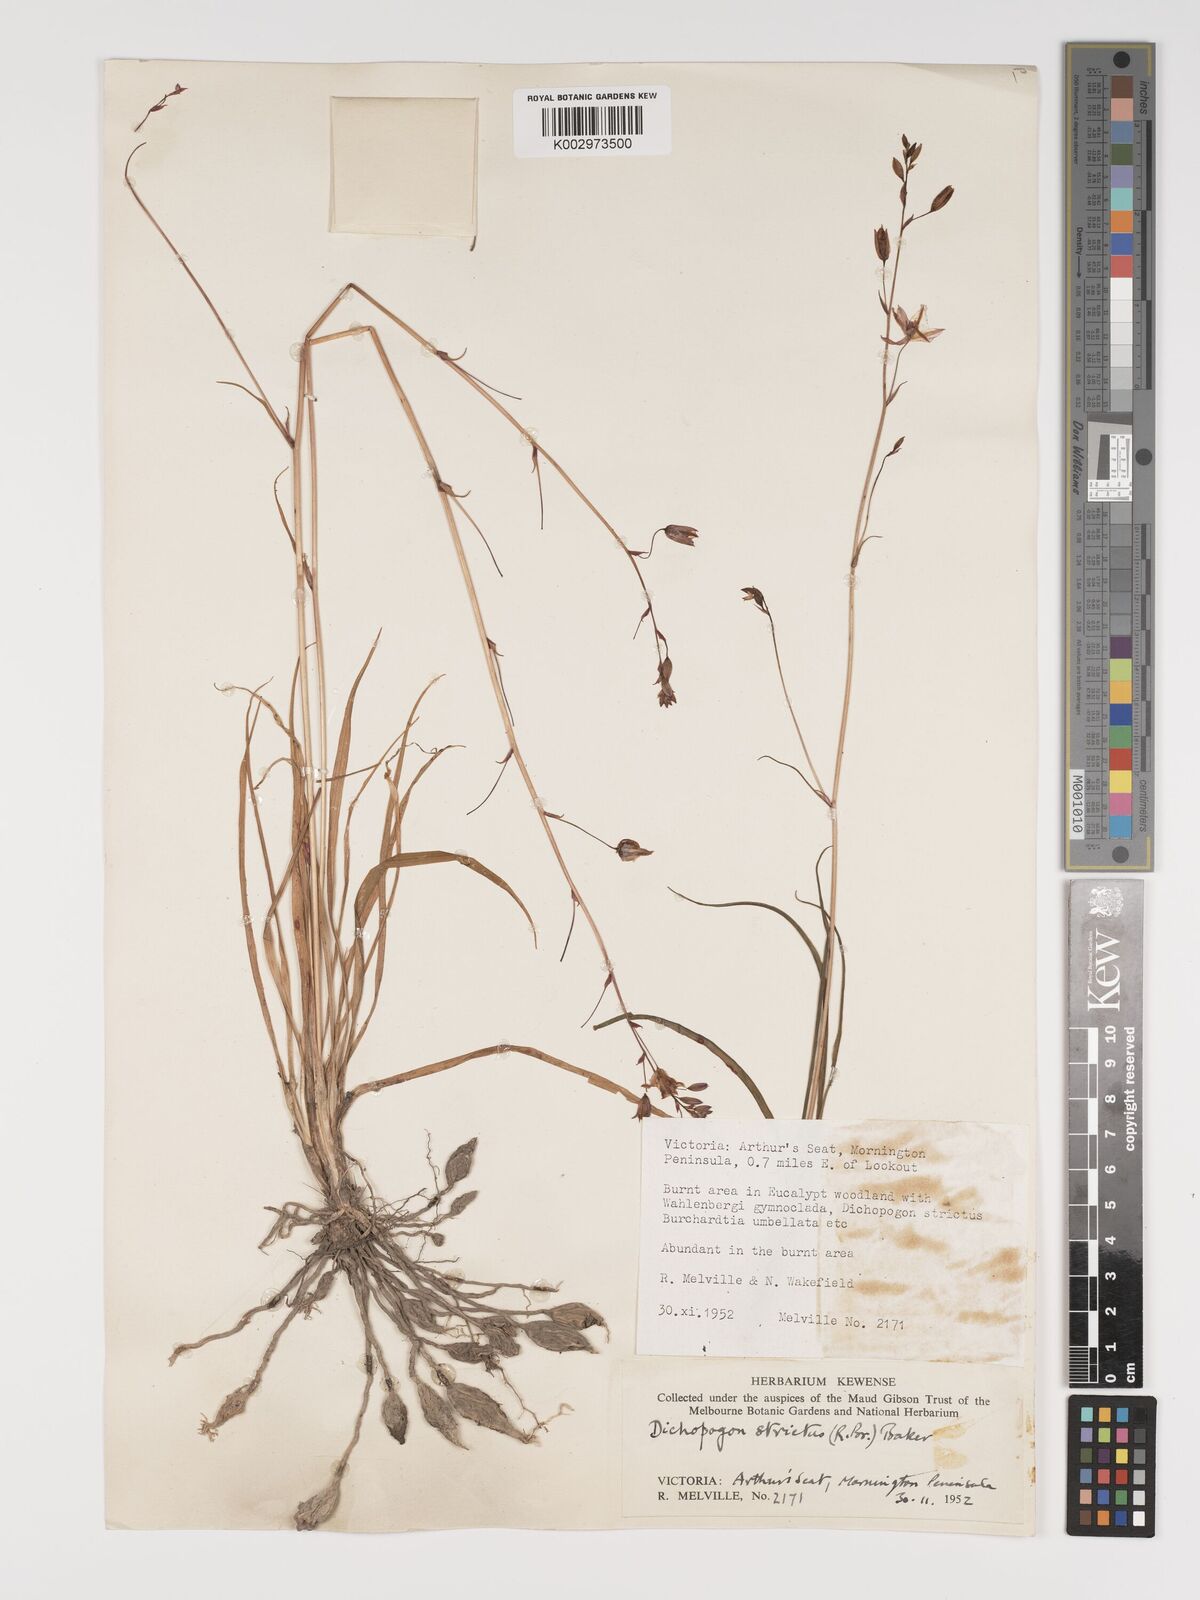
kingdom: Plantae
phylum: Tracheophyta
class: Liliopsida
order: Asparagales
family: Asparagaceae
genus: Arthropodium
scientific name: Arthropodium strictum
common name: Chocolate-lily
